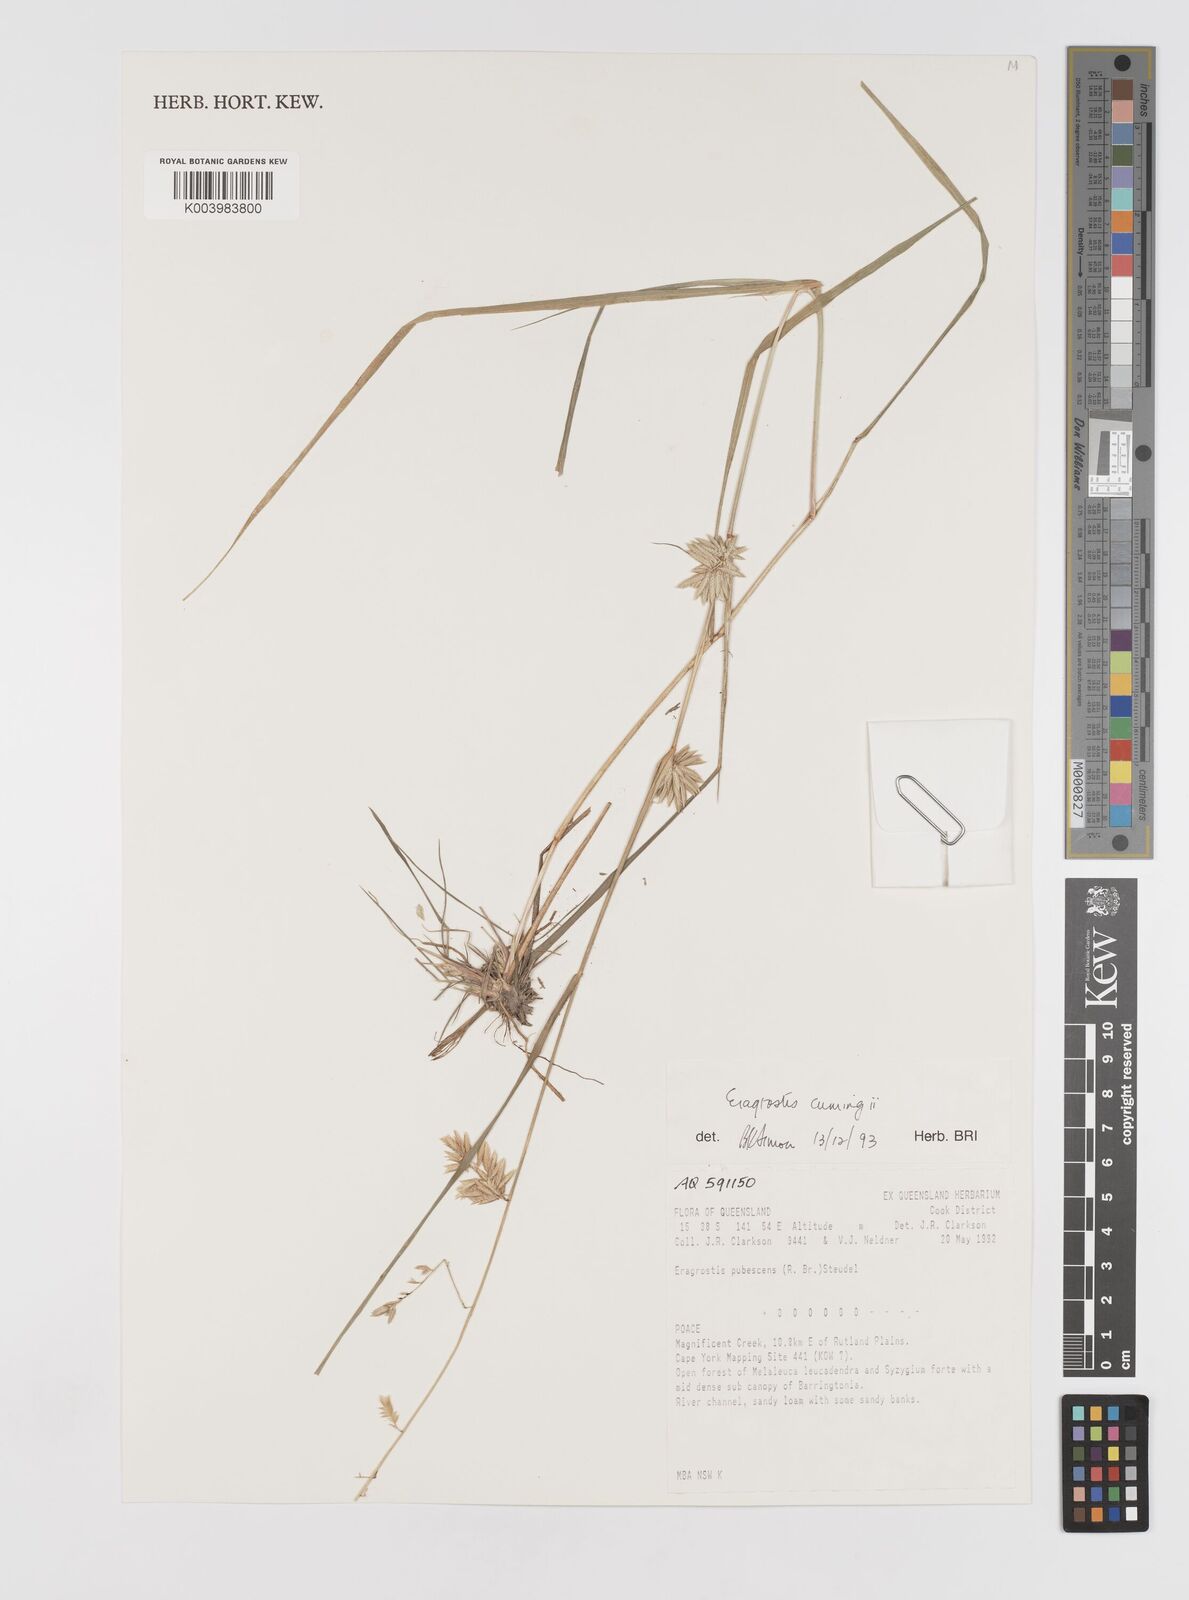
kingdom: Plantae
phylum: Tracheophyta
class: Liliopsida
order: Poales
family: Poaceae
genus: Eragrostis
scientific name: Eragrostis cumingii
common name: Cuming's lovegrass
